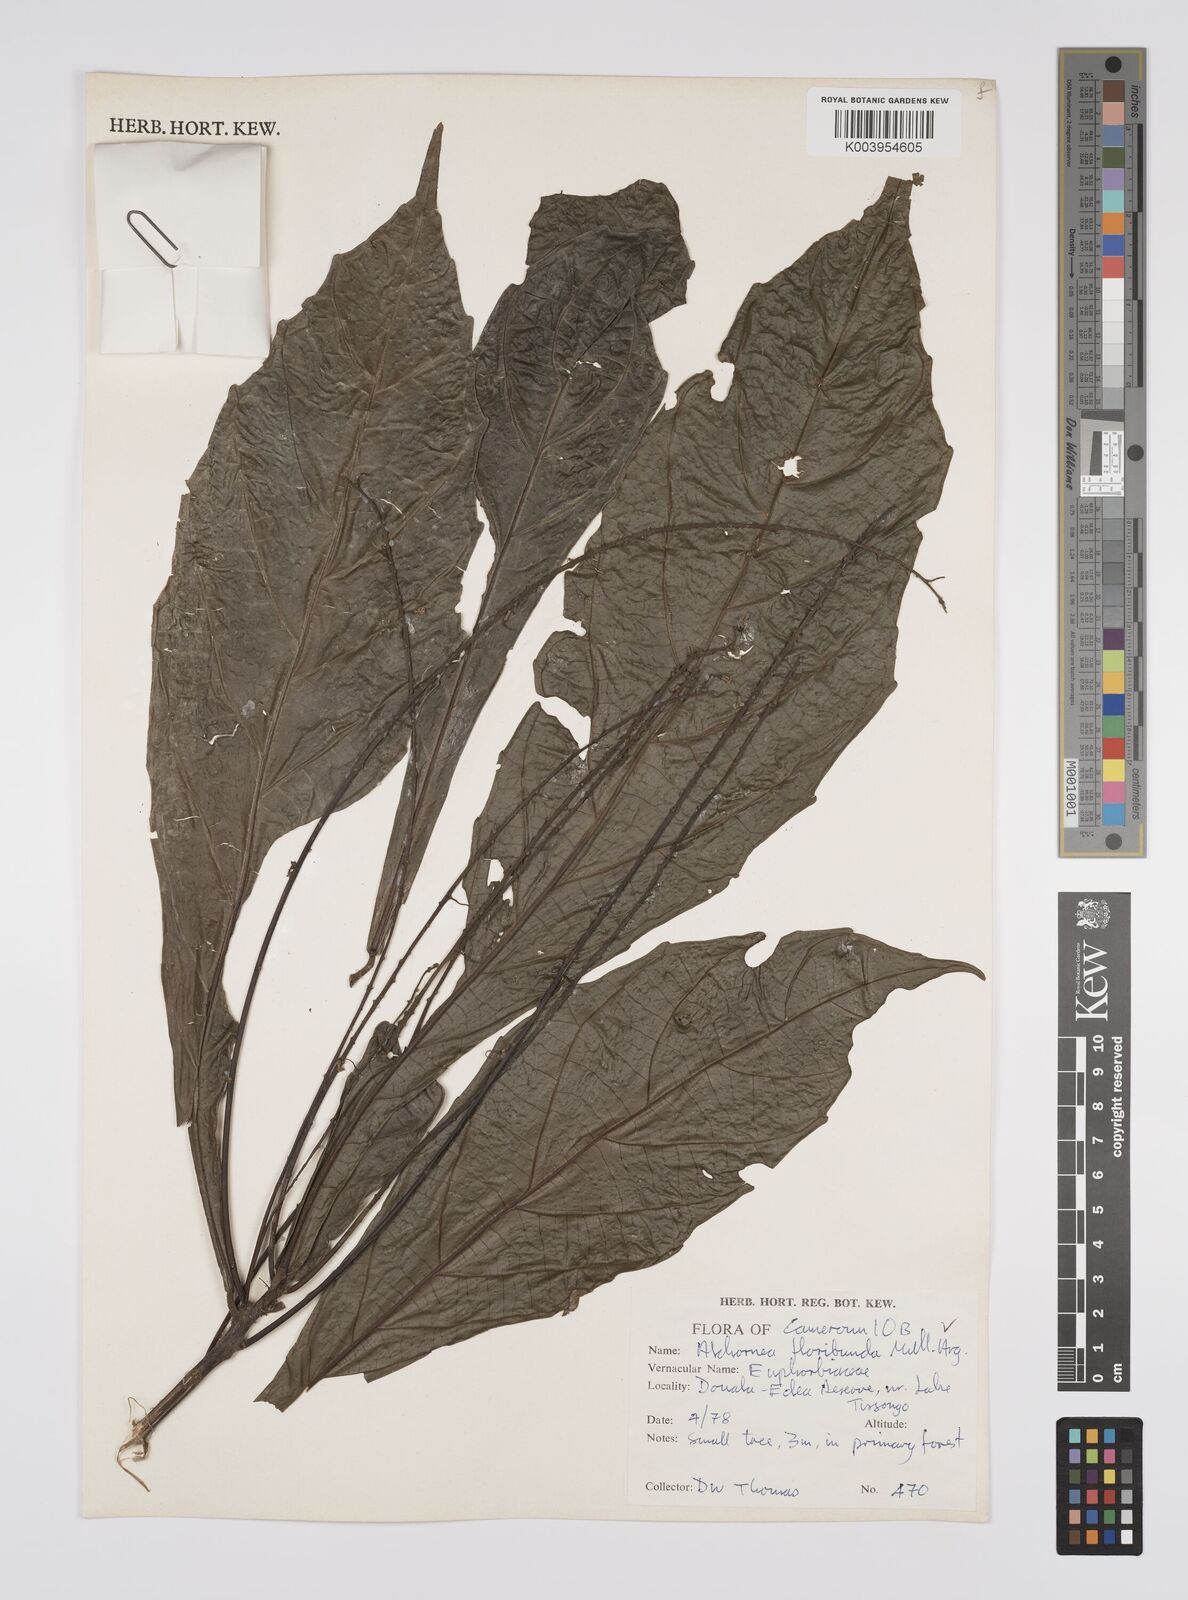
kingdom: Plantae
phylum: Tracheophyta
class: Magnoliopsida
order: Malpighiales
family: Euphorbiaceae
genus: Alchornea
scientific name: Alchornea floribunda
